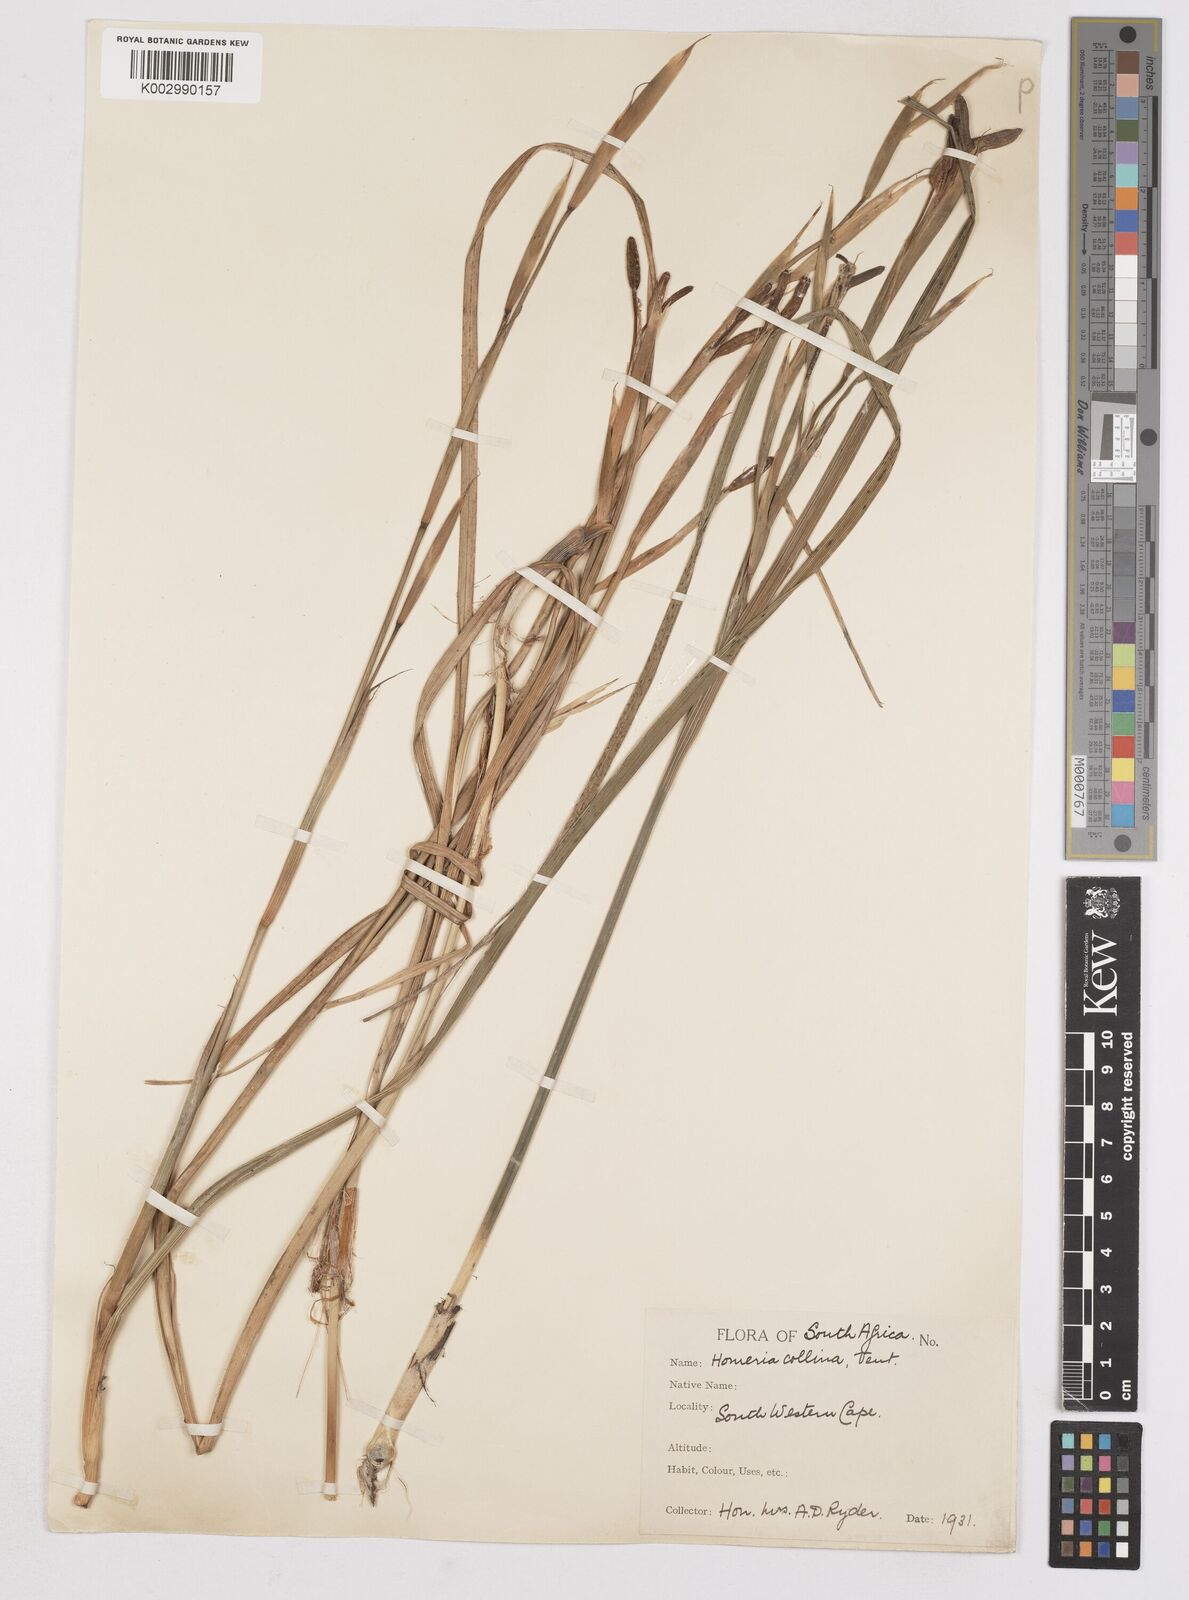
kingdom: Plantae
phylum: Tracheophyta
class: Liliopsida
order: Asparagales
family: Iridaceae
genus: Moraea
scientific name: Moraea collina
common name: Cape-tulip
